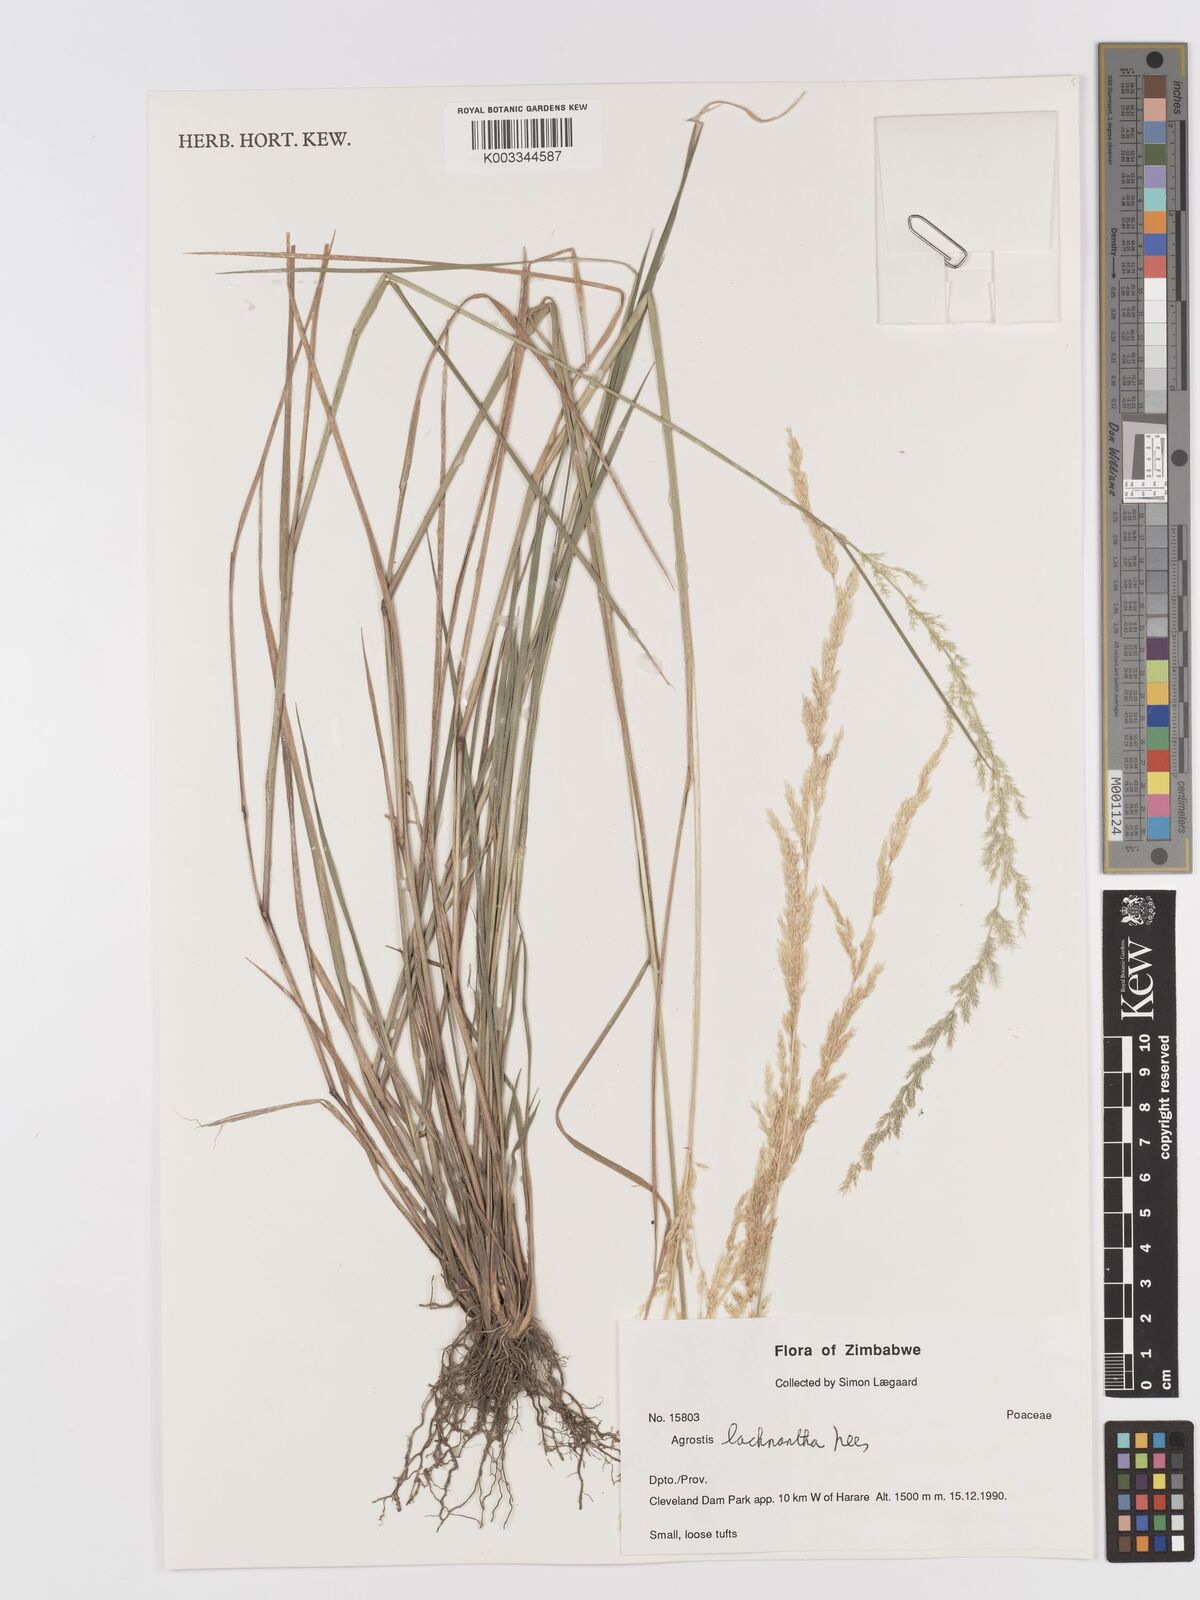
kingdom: Plantae
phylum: Tracheophyta
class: Liliopsida
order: Poales
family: Poaceae
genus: Lachnagrostis
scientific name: Lachnagrostis lachnantha
